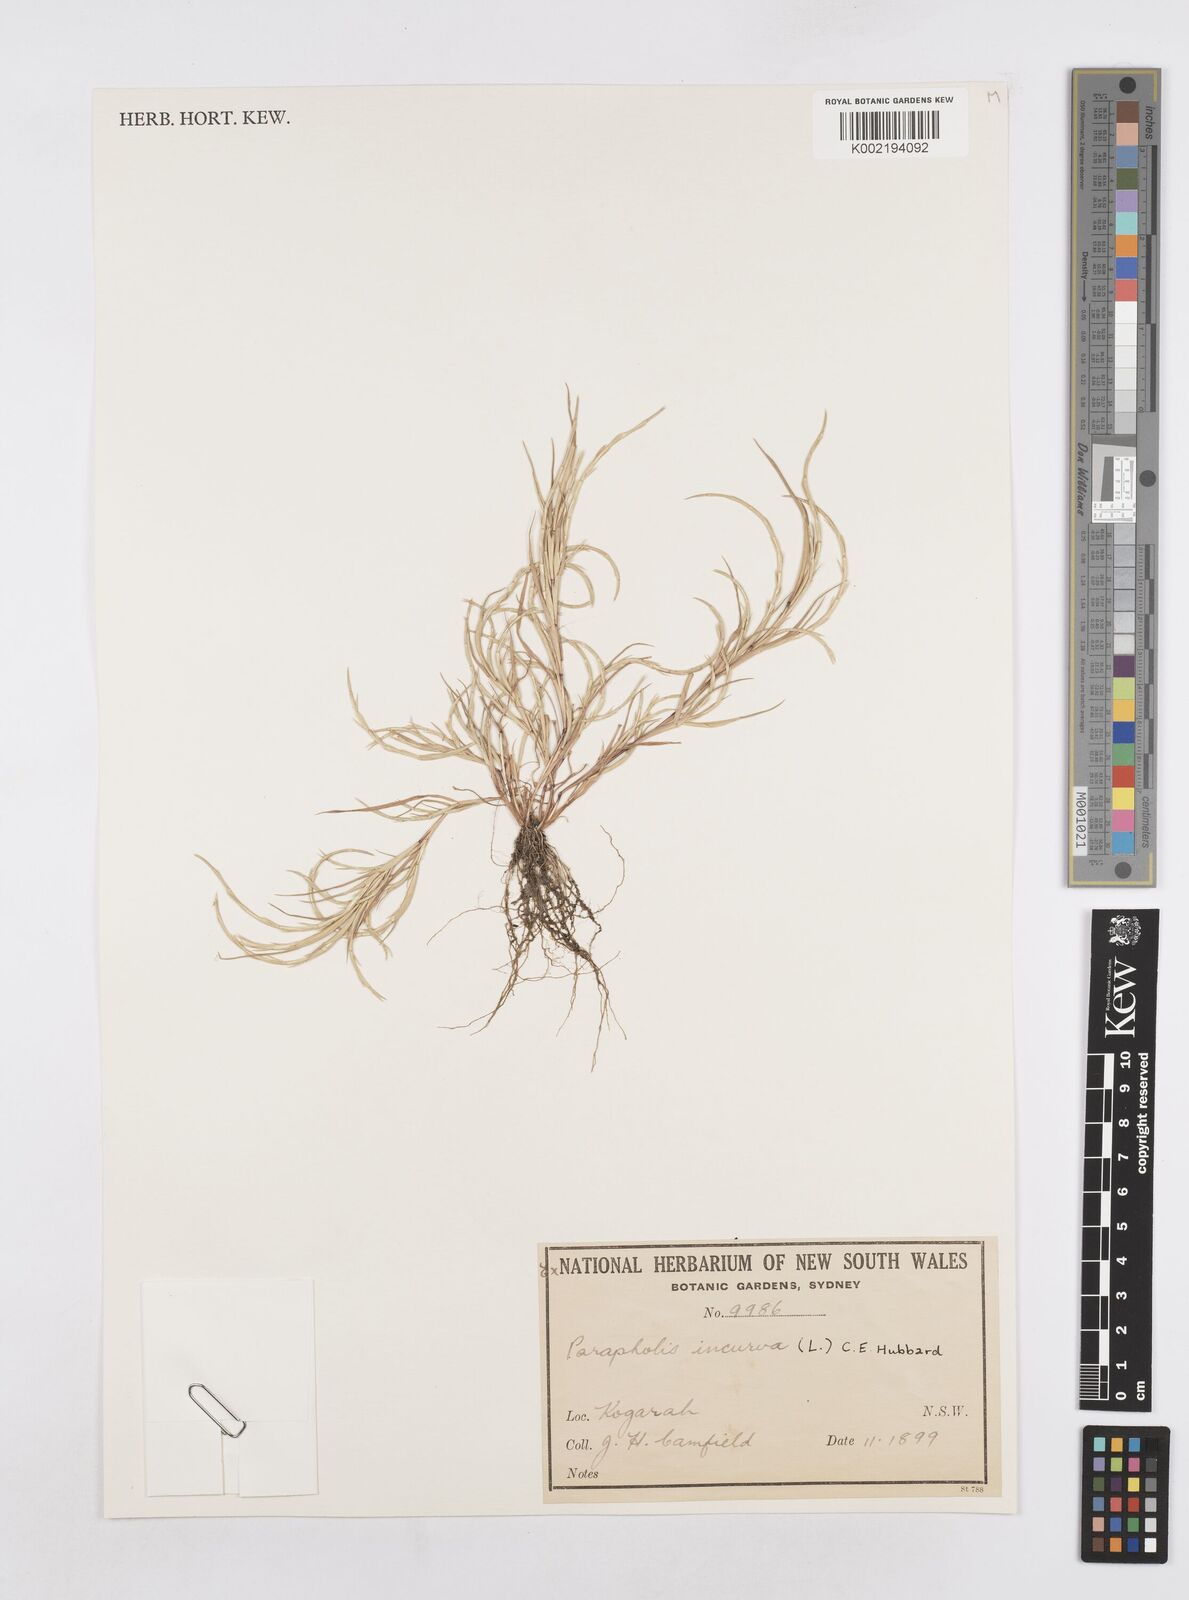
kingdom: Plantae
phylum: Tracheophyta
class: Liliopsida
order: Poales
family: Poaceae
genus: Parapholis
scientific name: Parapholis strigosa
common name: Hard-grass
